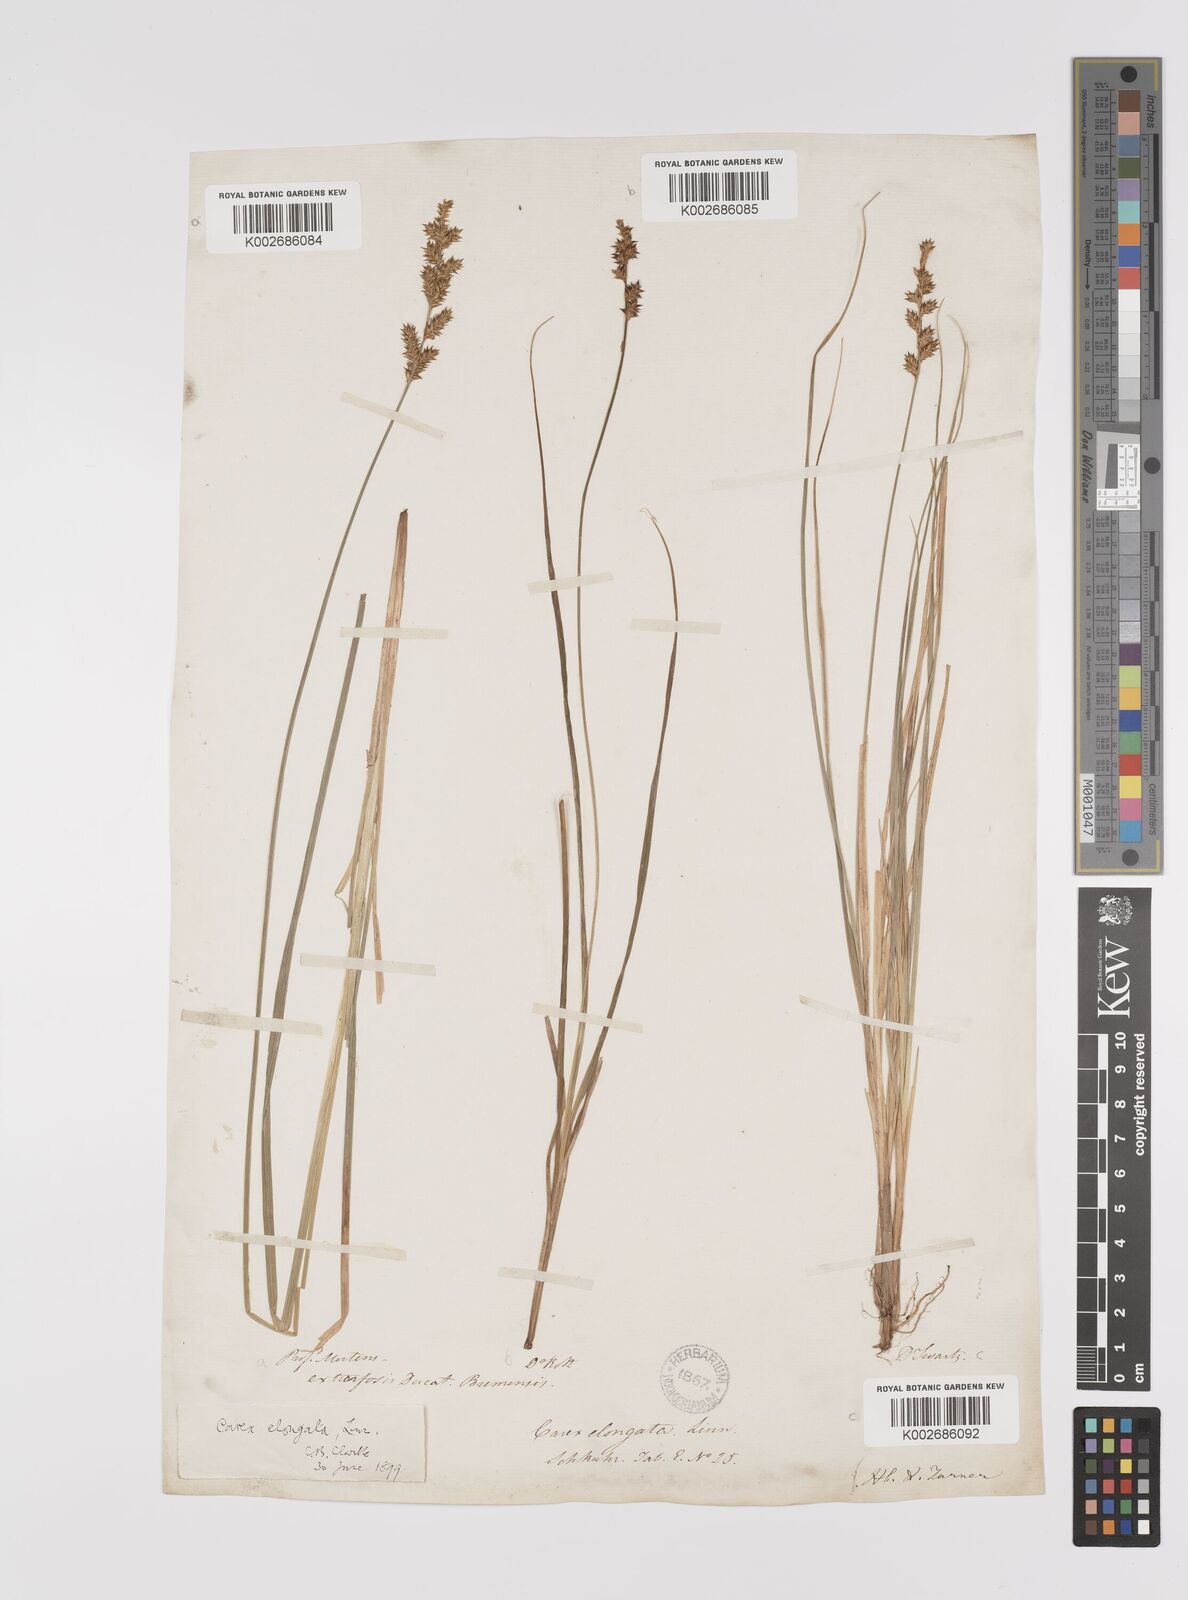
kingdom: Plantae
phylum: Tracheophyta
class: Liliopsida
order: Poales
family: Cyperaceae
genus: Carex
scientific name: Carex elongata
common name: Elongated sedge
